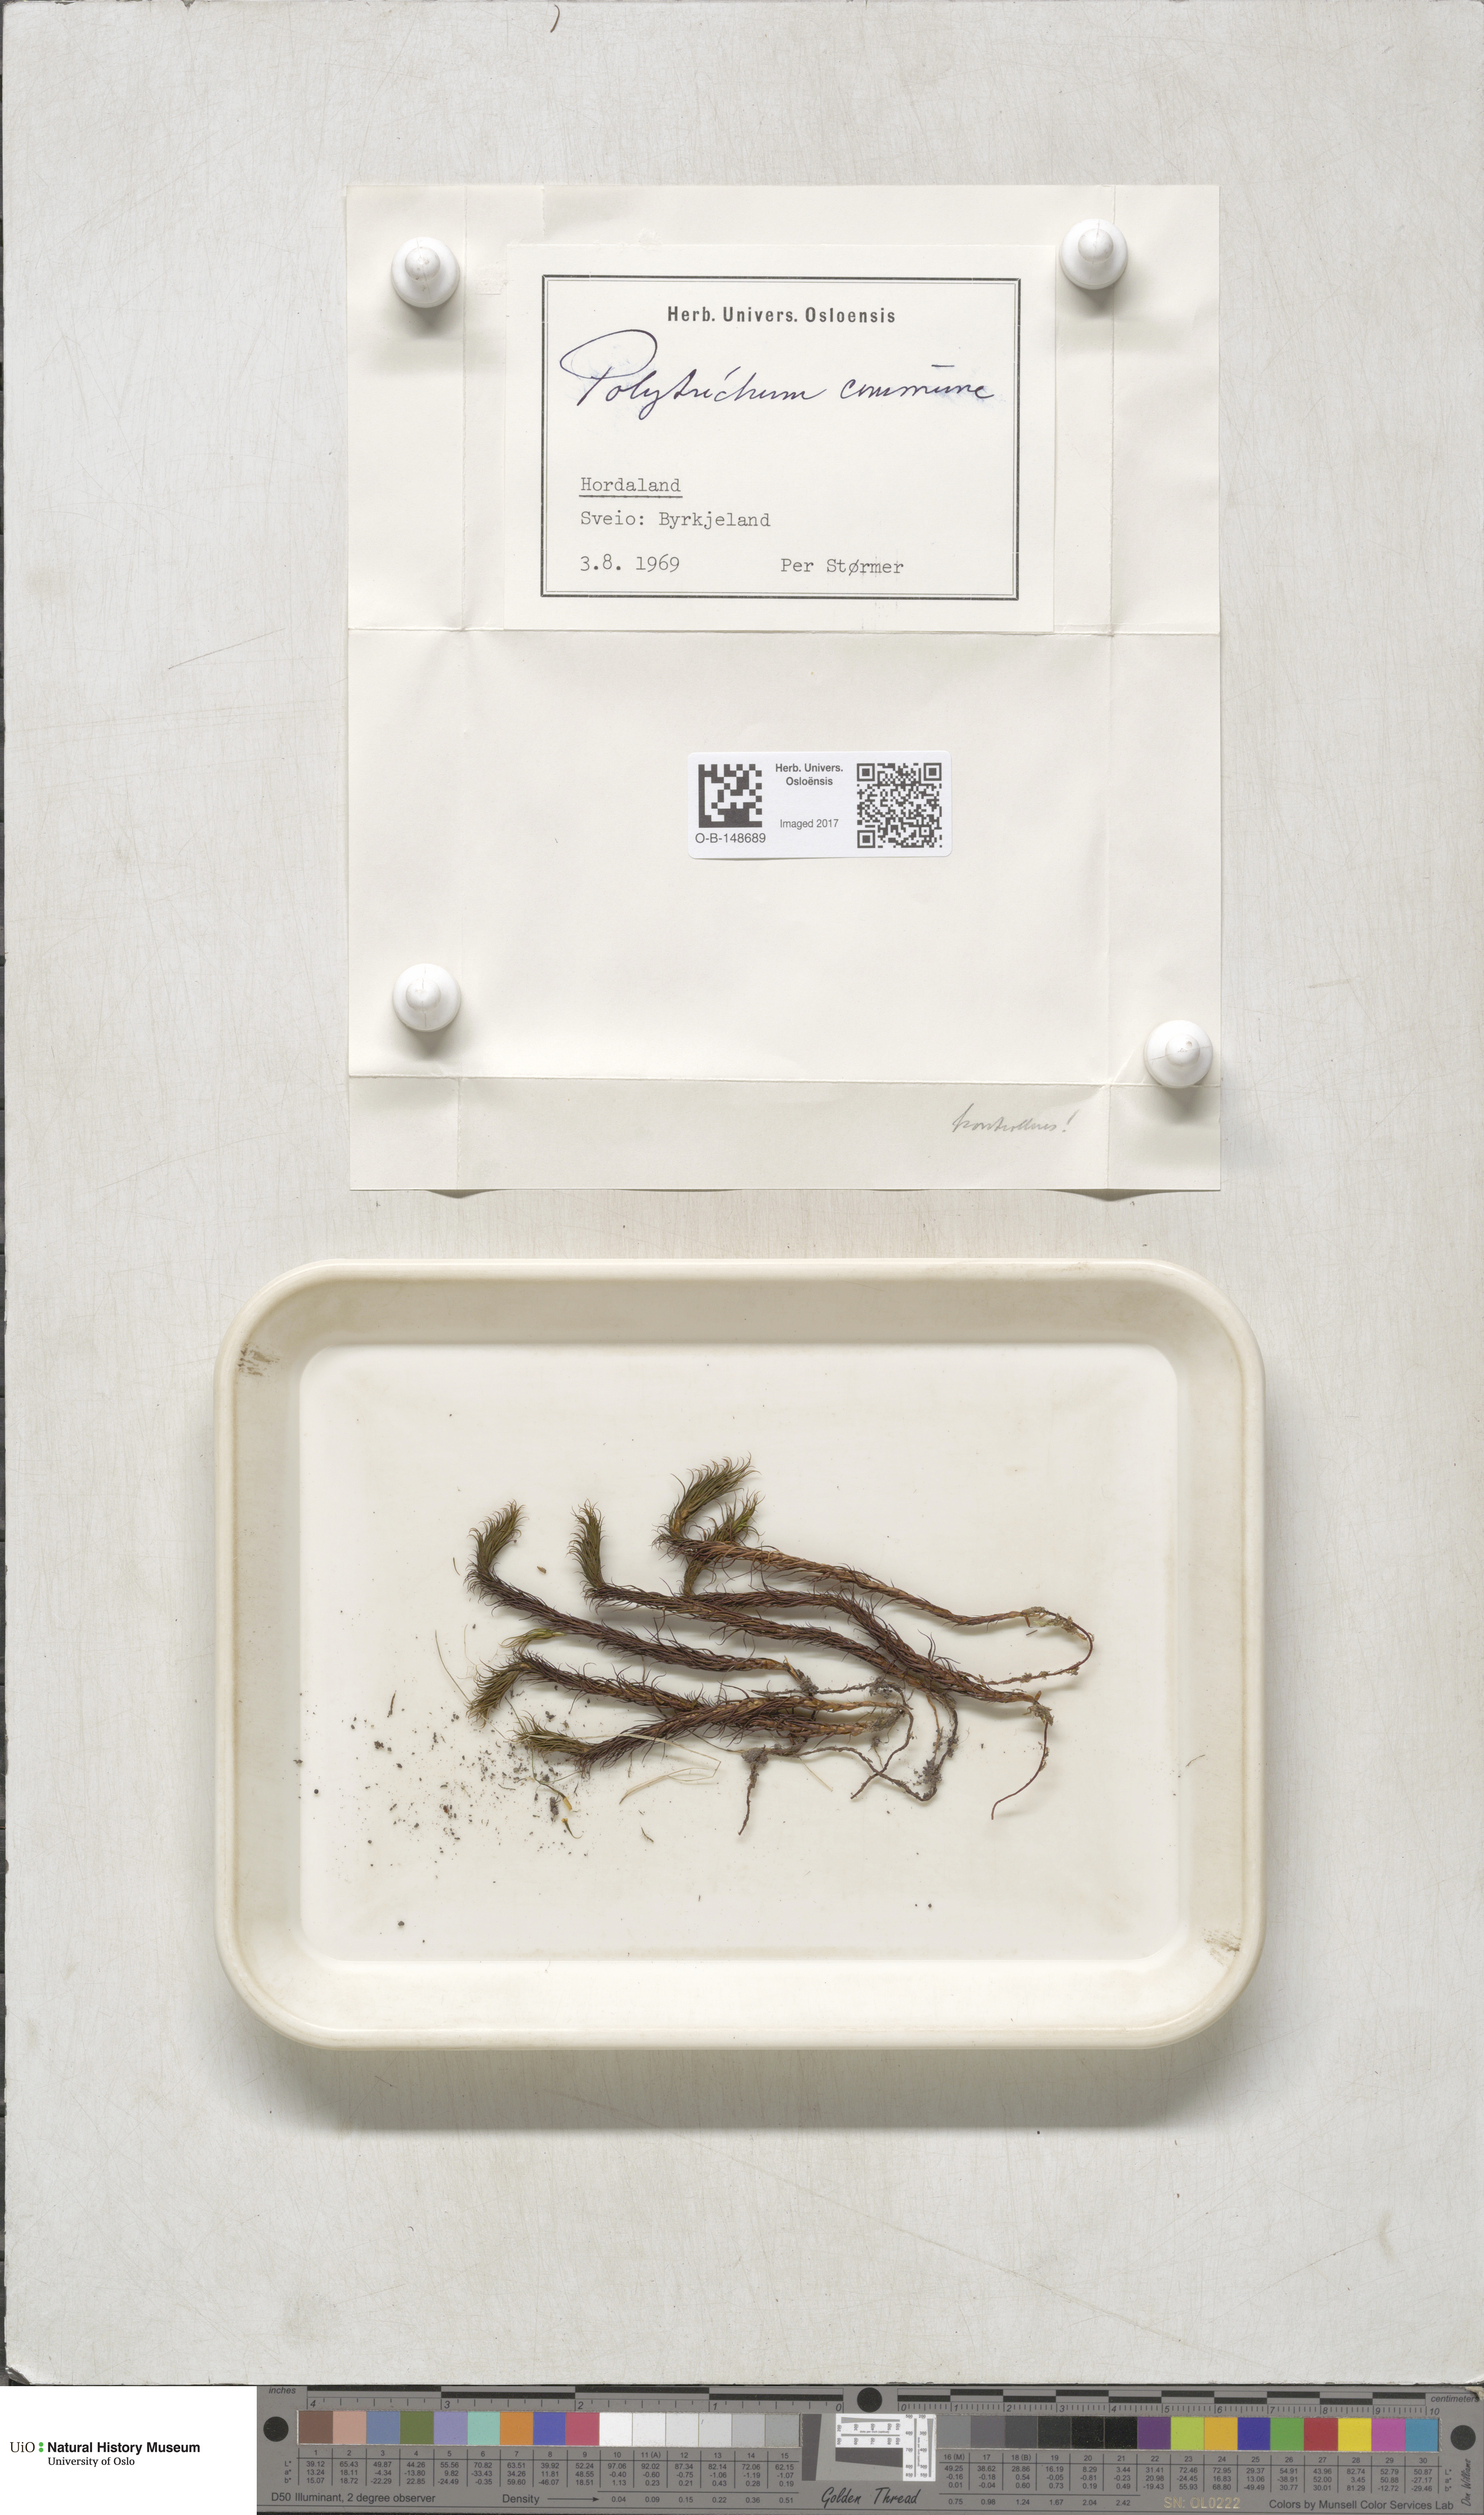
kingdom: Plantae
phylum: Bryophyta
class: Polytrichopsida
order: Polytrichales
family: Polytrichaceae
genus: Polytrichum
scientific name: Polytrichum commune
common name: Common haircap
